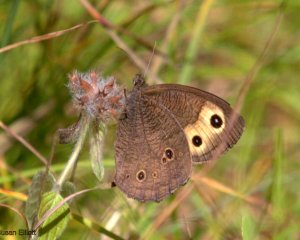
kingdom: Animalia
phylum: Arthropoda
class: Insecta
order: Lepidoptera
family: Nymphalidae
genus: Cercyonis
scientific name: Cercyonis pegala
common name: Common Wood-Nymph
